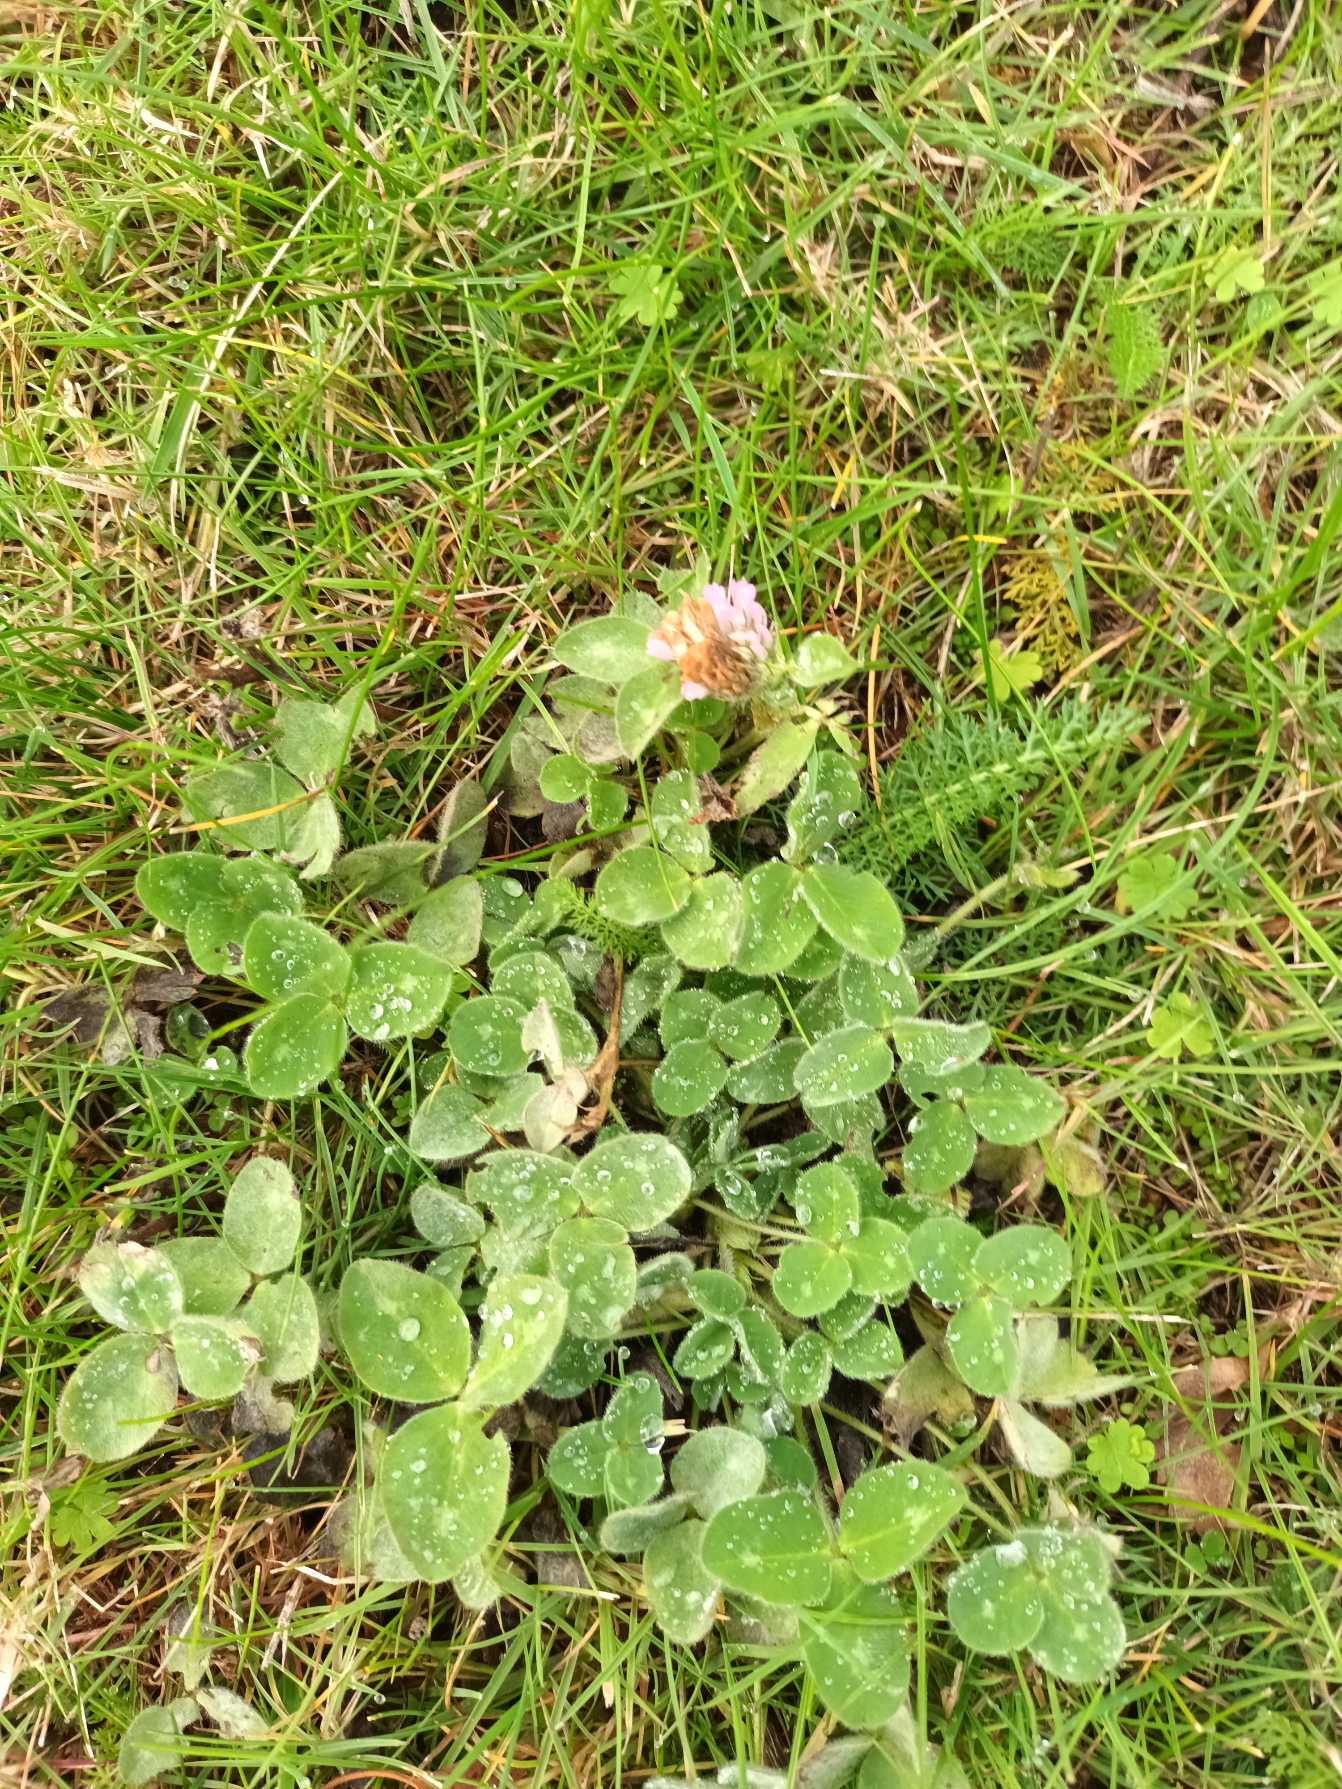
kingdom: Plantae
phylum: Tracheophyta
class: Magnoliopsida
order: Fabales
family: Fabaceae
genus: Trifolium
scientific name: Trifolium pratense
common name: Rød-kløver
